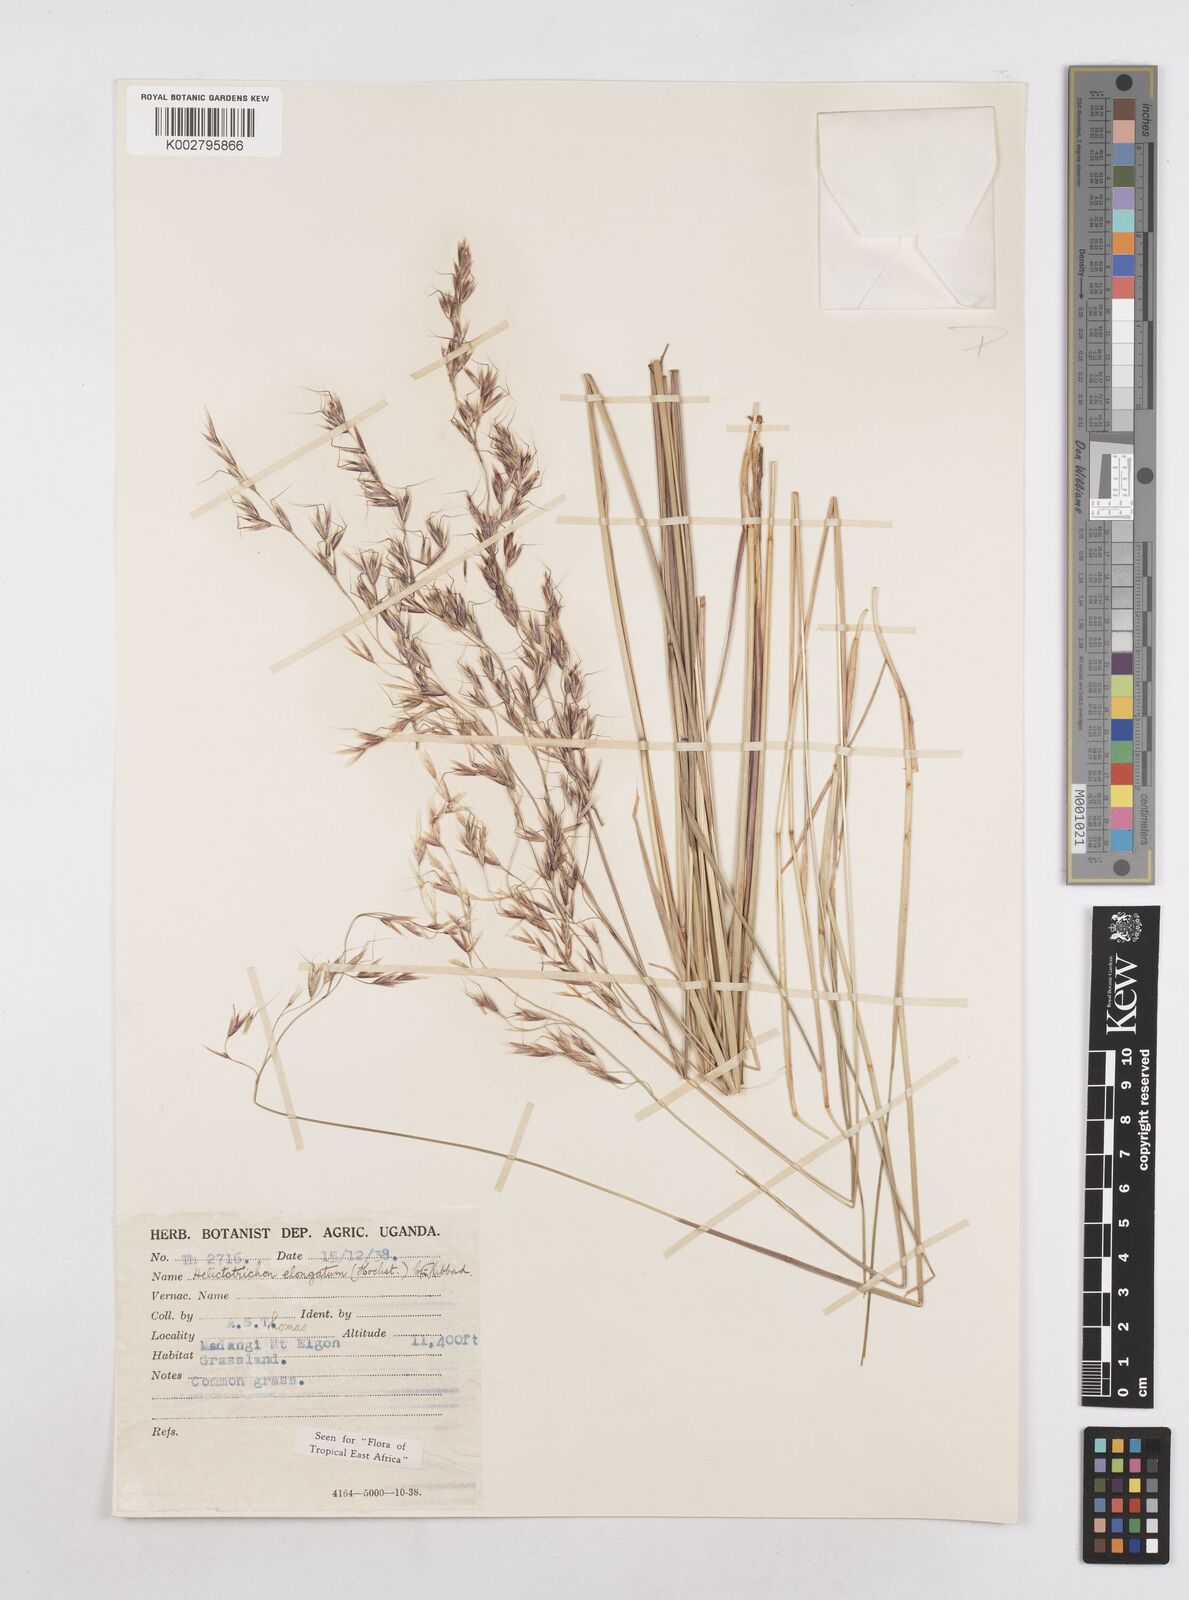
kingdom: Plantae
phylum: Tracheophyta
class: Liliopsida
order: Poales
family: Poaceae
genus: Trisetopsis
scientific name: Trisetopsis elongata
